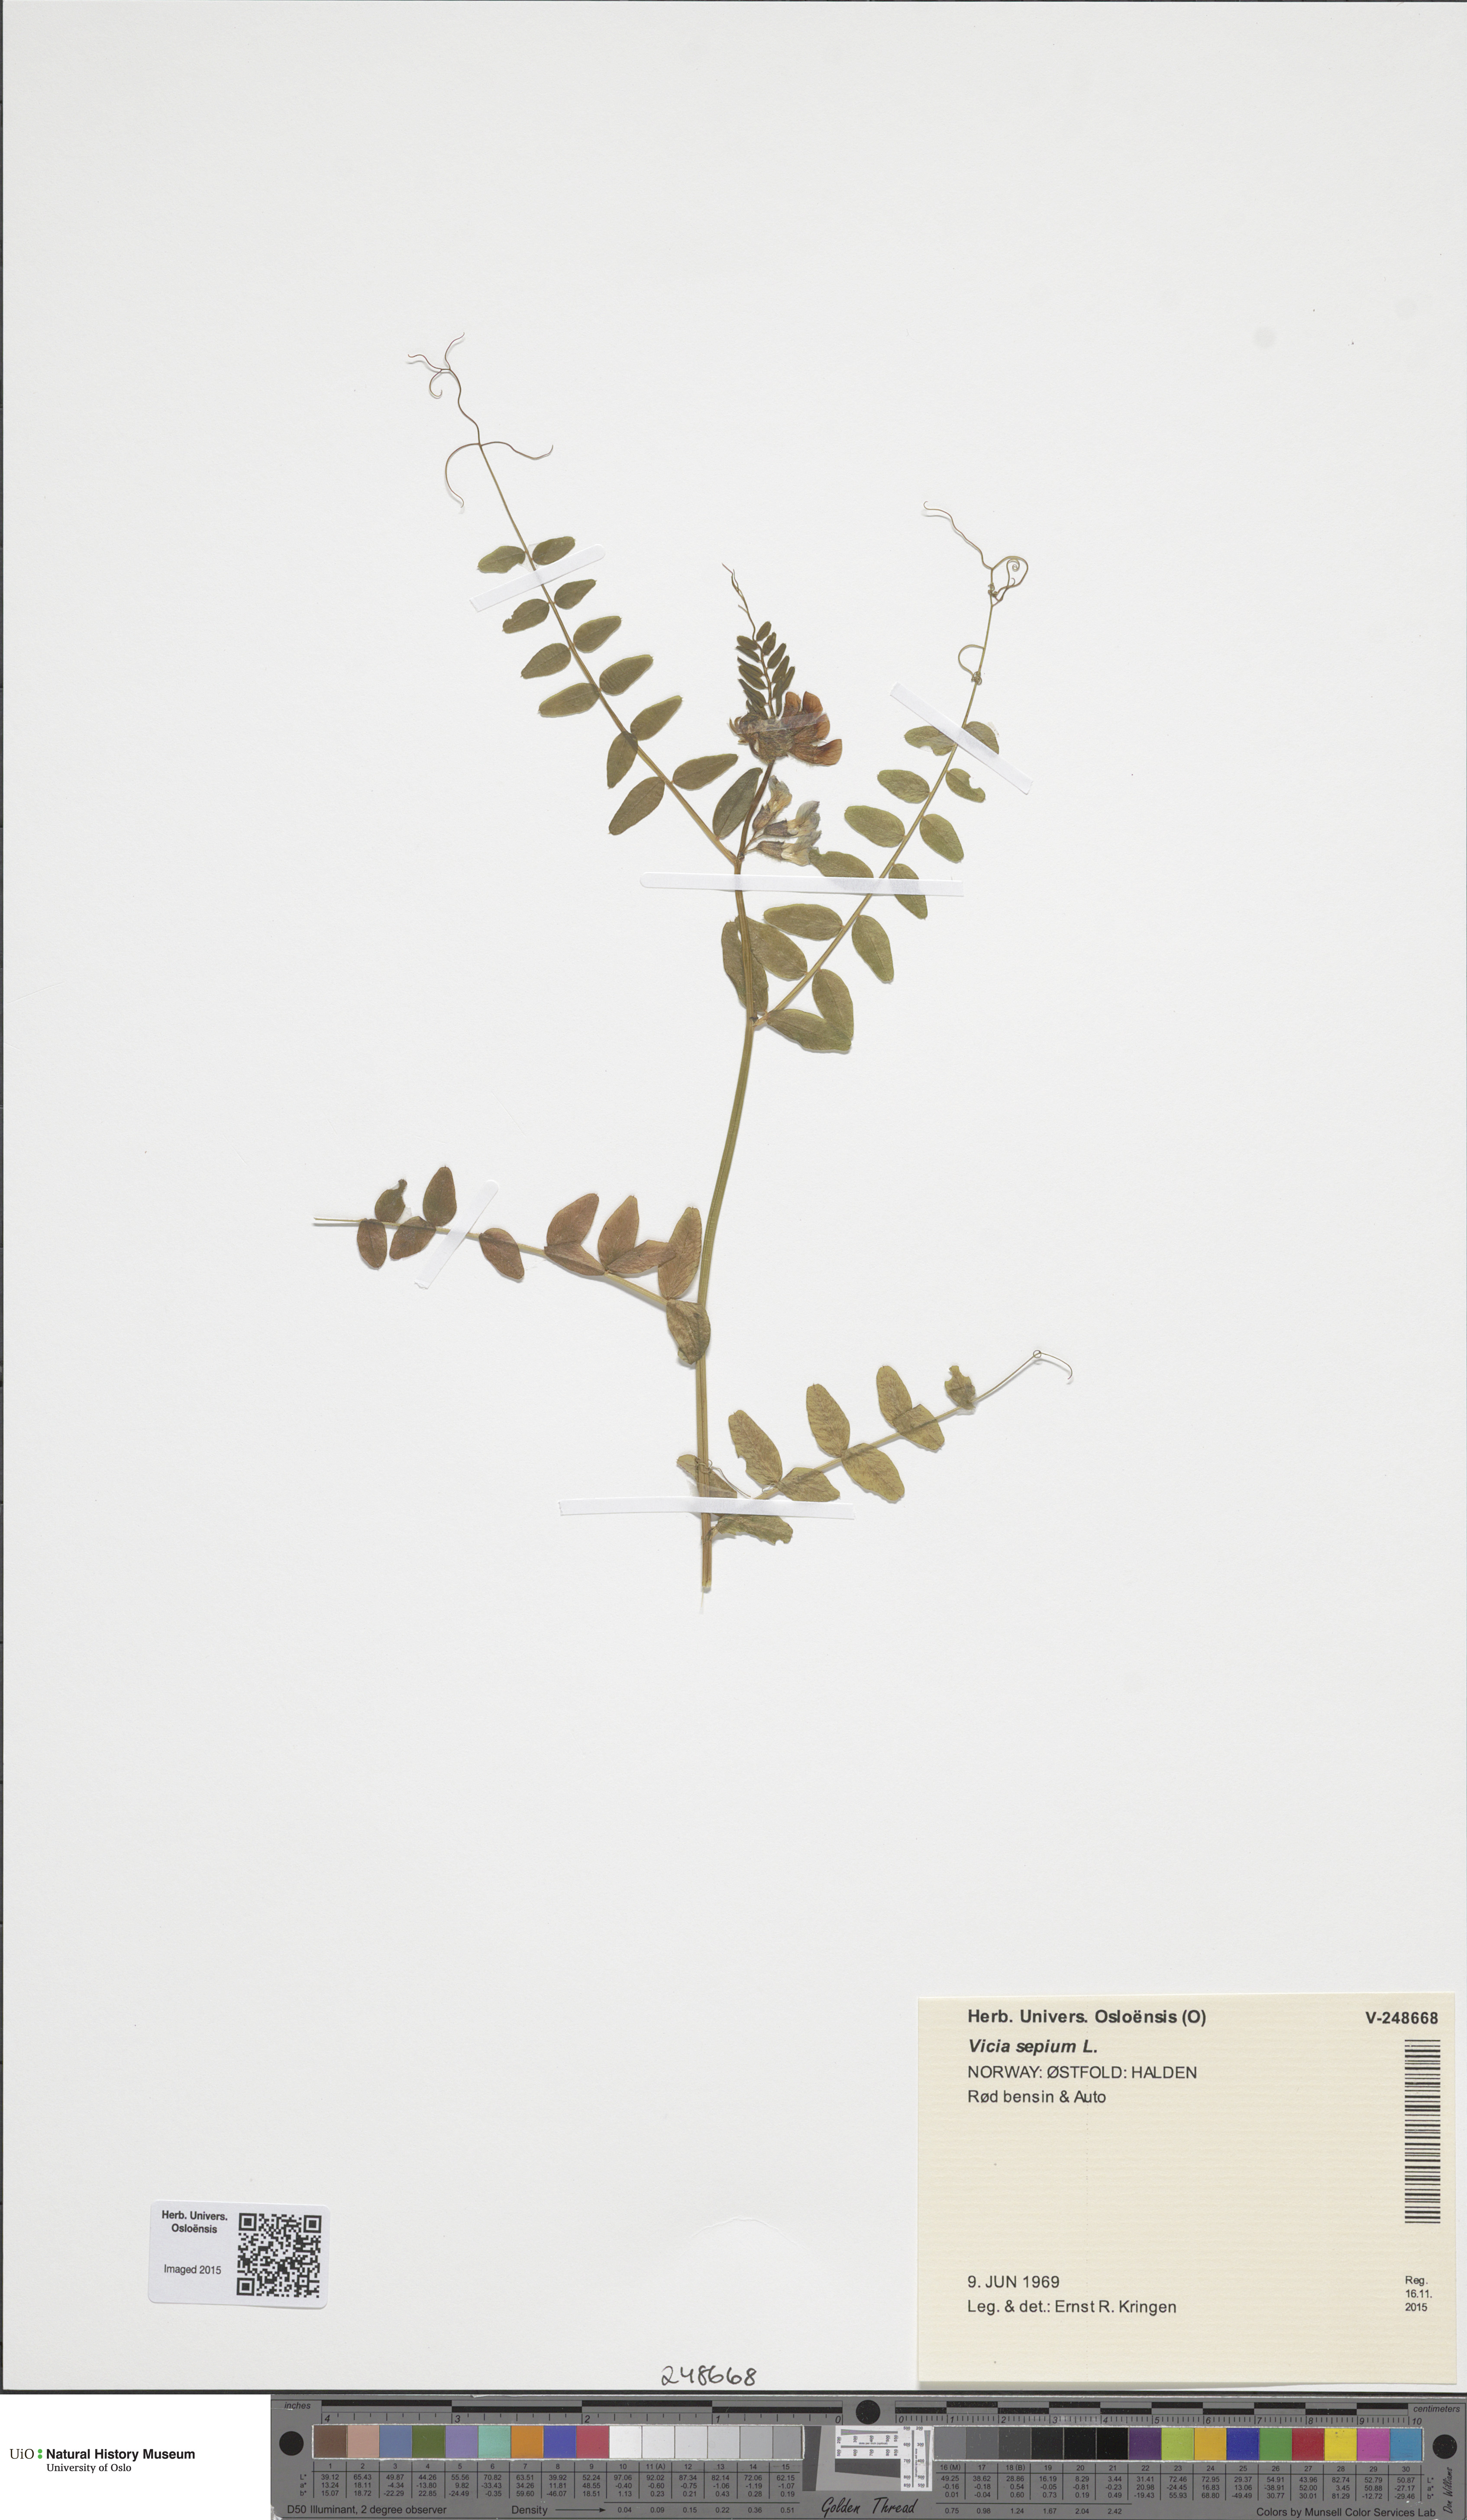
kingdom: Plantae
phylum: Tracheophyta
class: Magnoliopsida
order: Fabales
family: Fabaceae
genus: Vicia
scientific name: Vicia sepium
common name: Bush vetch
